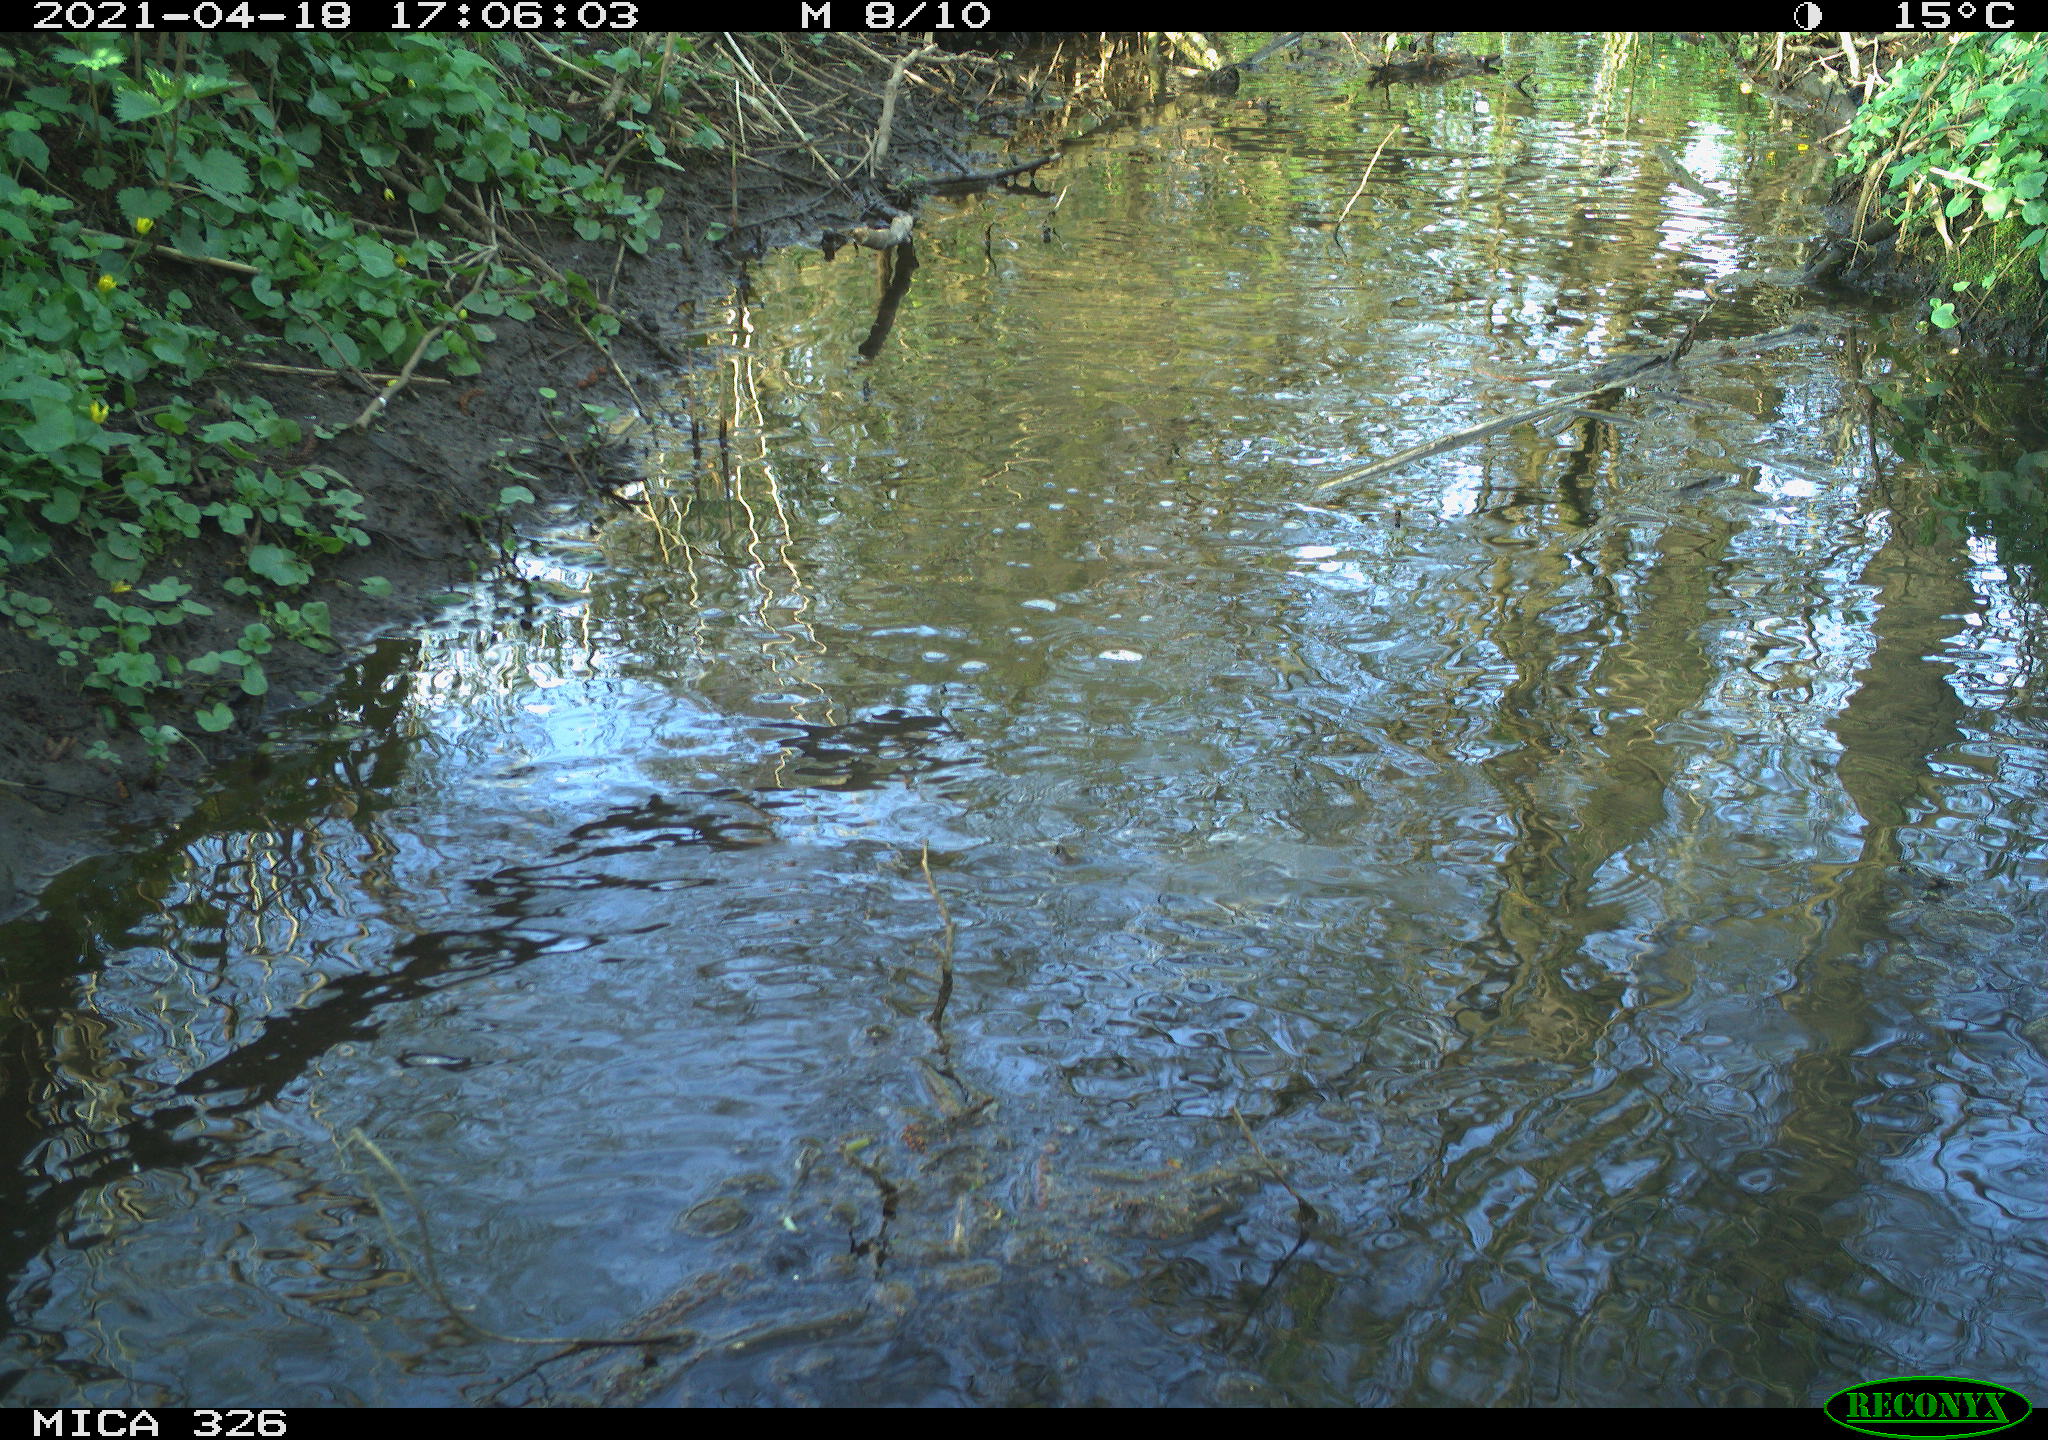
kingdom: Animalia
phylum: Chordata
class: Mammalia
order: Rodentia
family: Cricetidae
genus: Ondatra
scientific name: Ondatra zibethicus
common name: Muskrat
